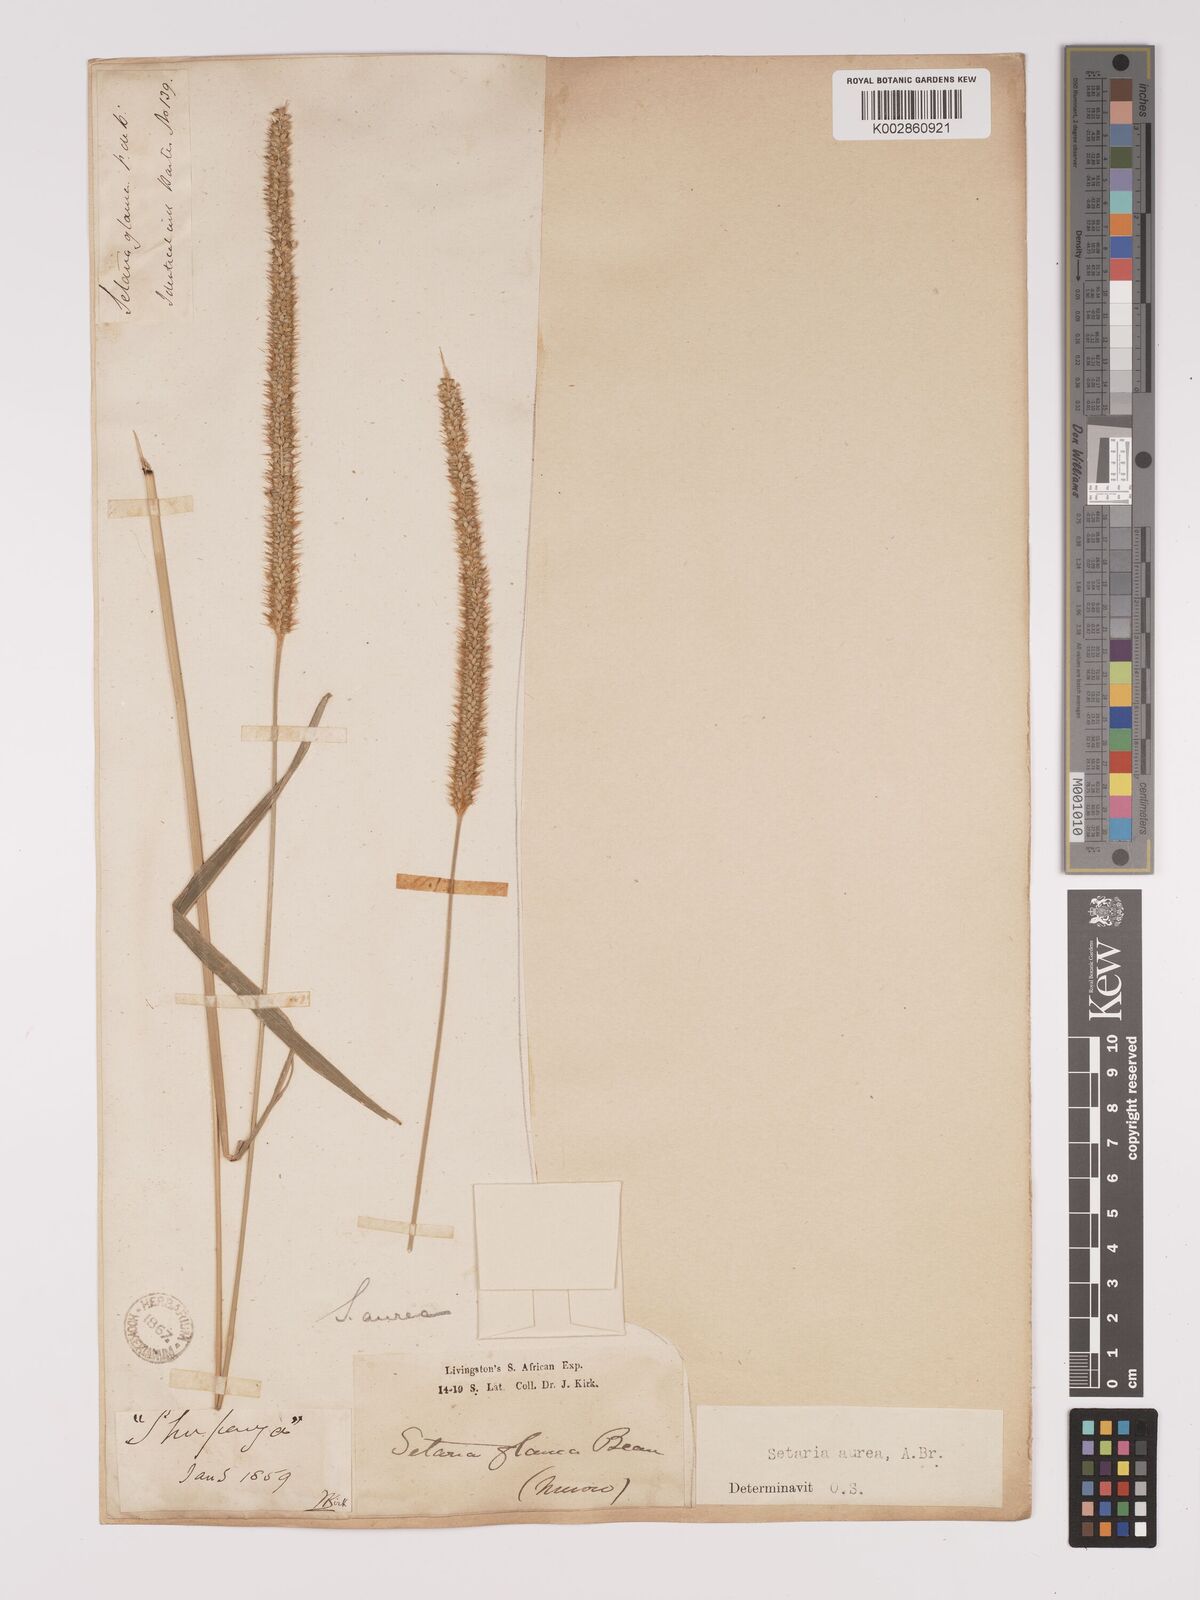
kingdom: Plantae
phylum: Tracheophyta
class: Liliopsida
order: Poales
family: Poaceae
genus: Setaria
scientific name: Setaria sphacelata
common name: African bristlegrass
